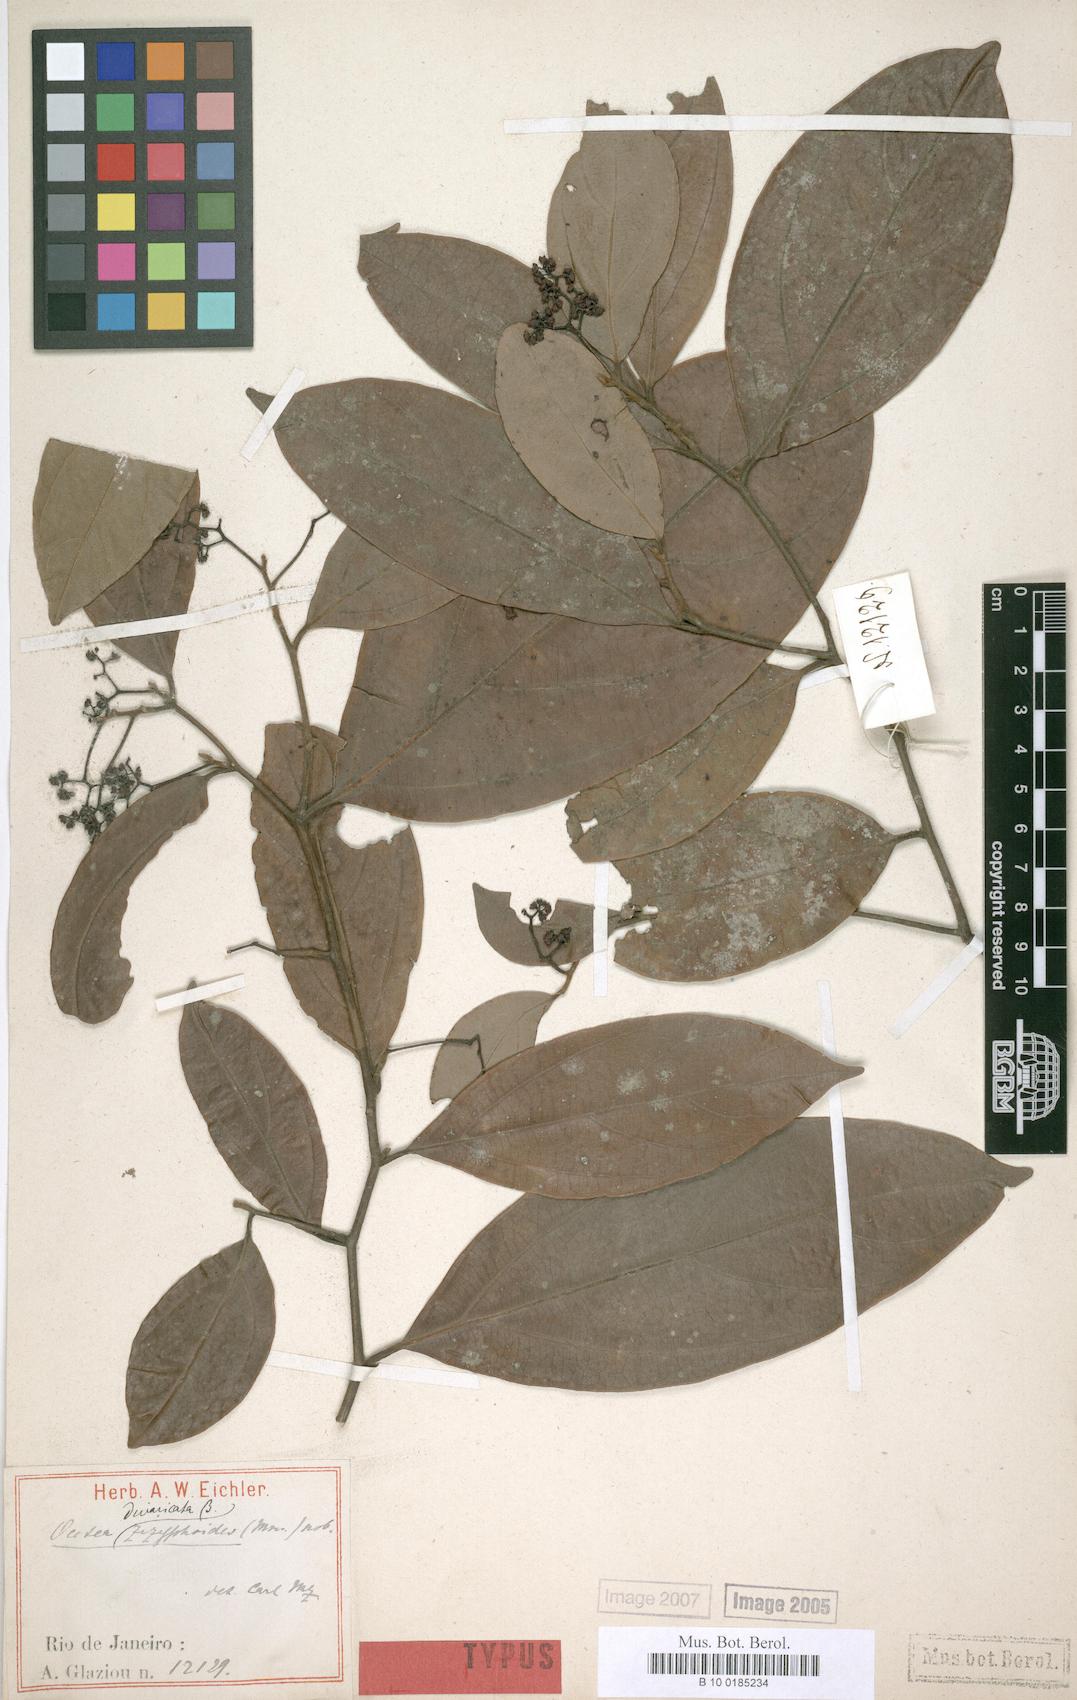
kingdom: Plantae
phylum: Tracheophyta
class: Magnoliopsida
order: Laurales
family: Lauraceae
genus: Ocotea
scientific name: Ocotea divaricata
